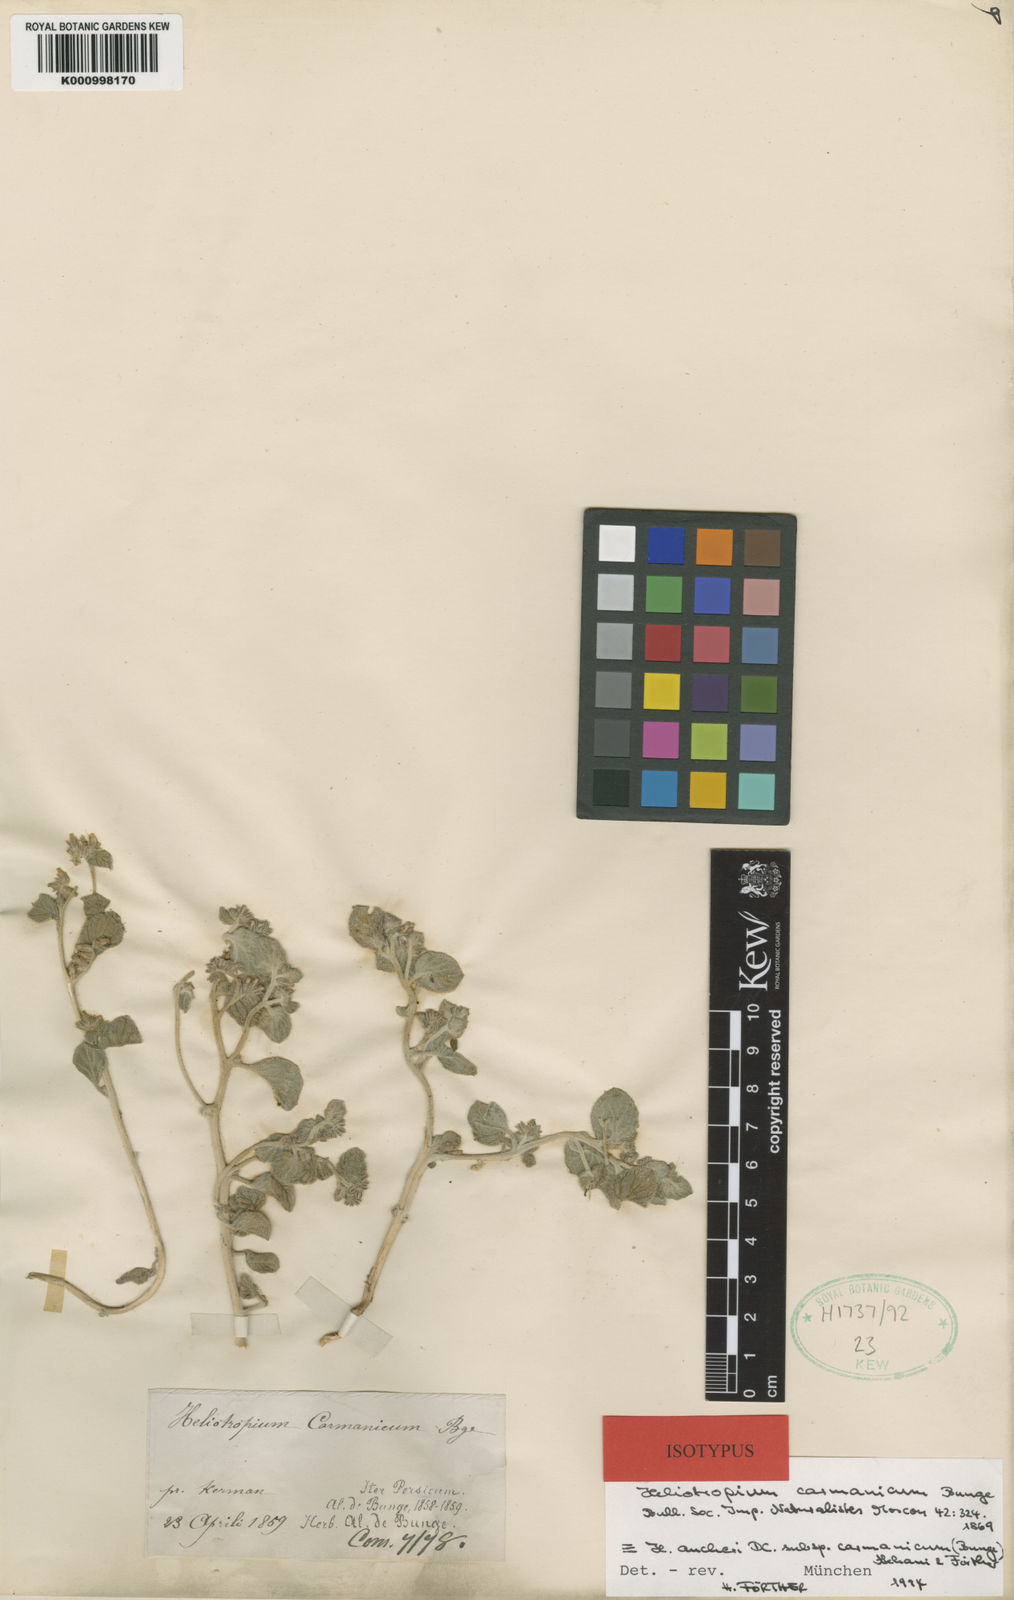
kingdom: Plantae
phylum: Tracheophyta
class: Magnoliopsida
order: Boraginales
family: Heliotropiaceae
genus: Heliotropium
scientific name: Heliotropium aucheri
